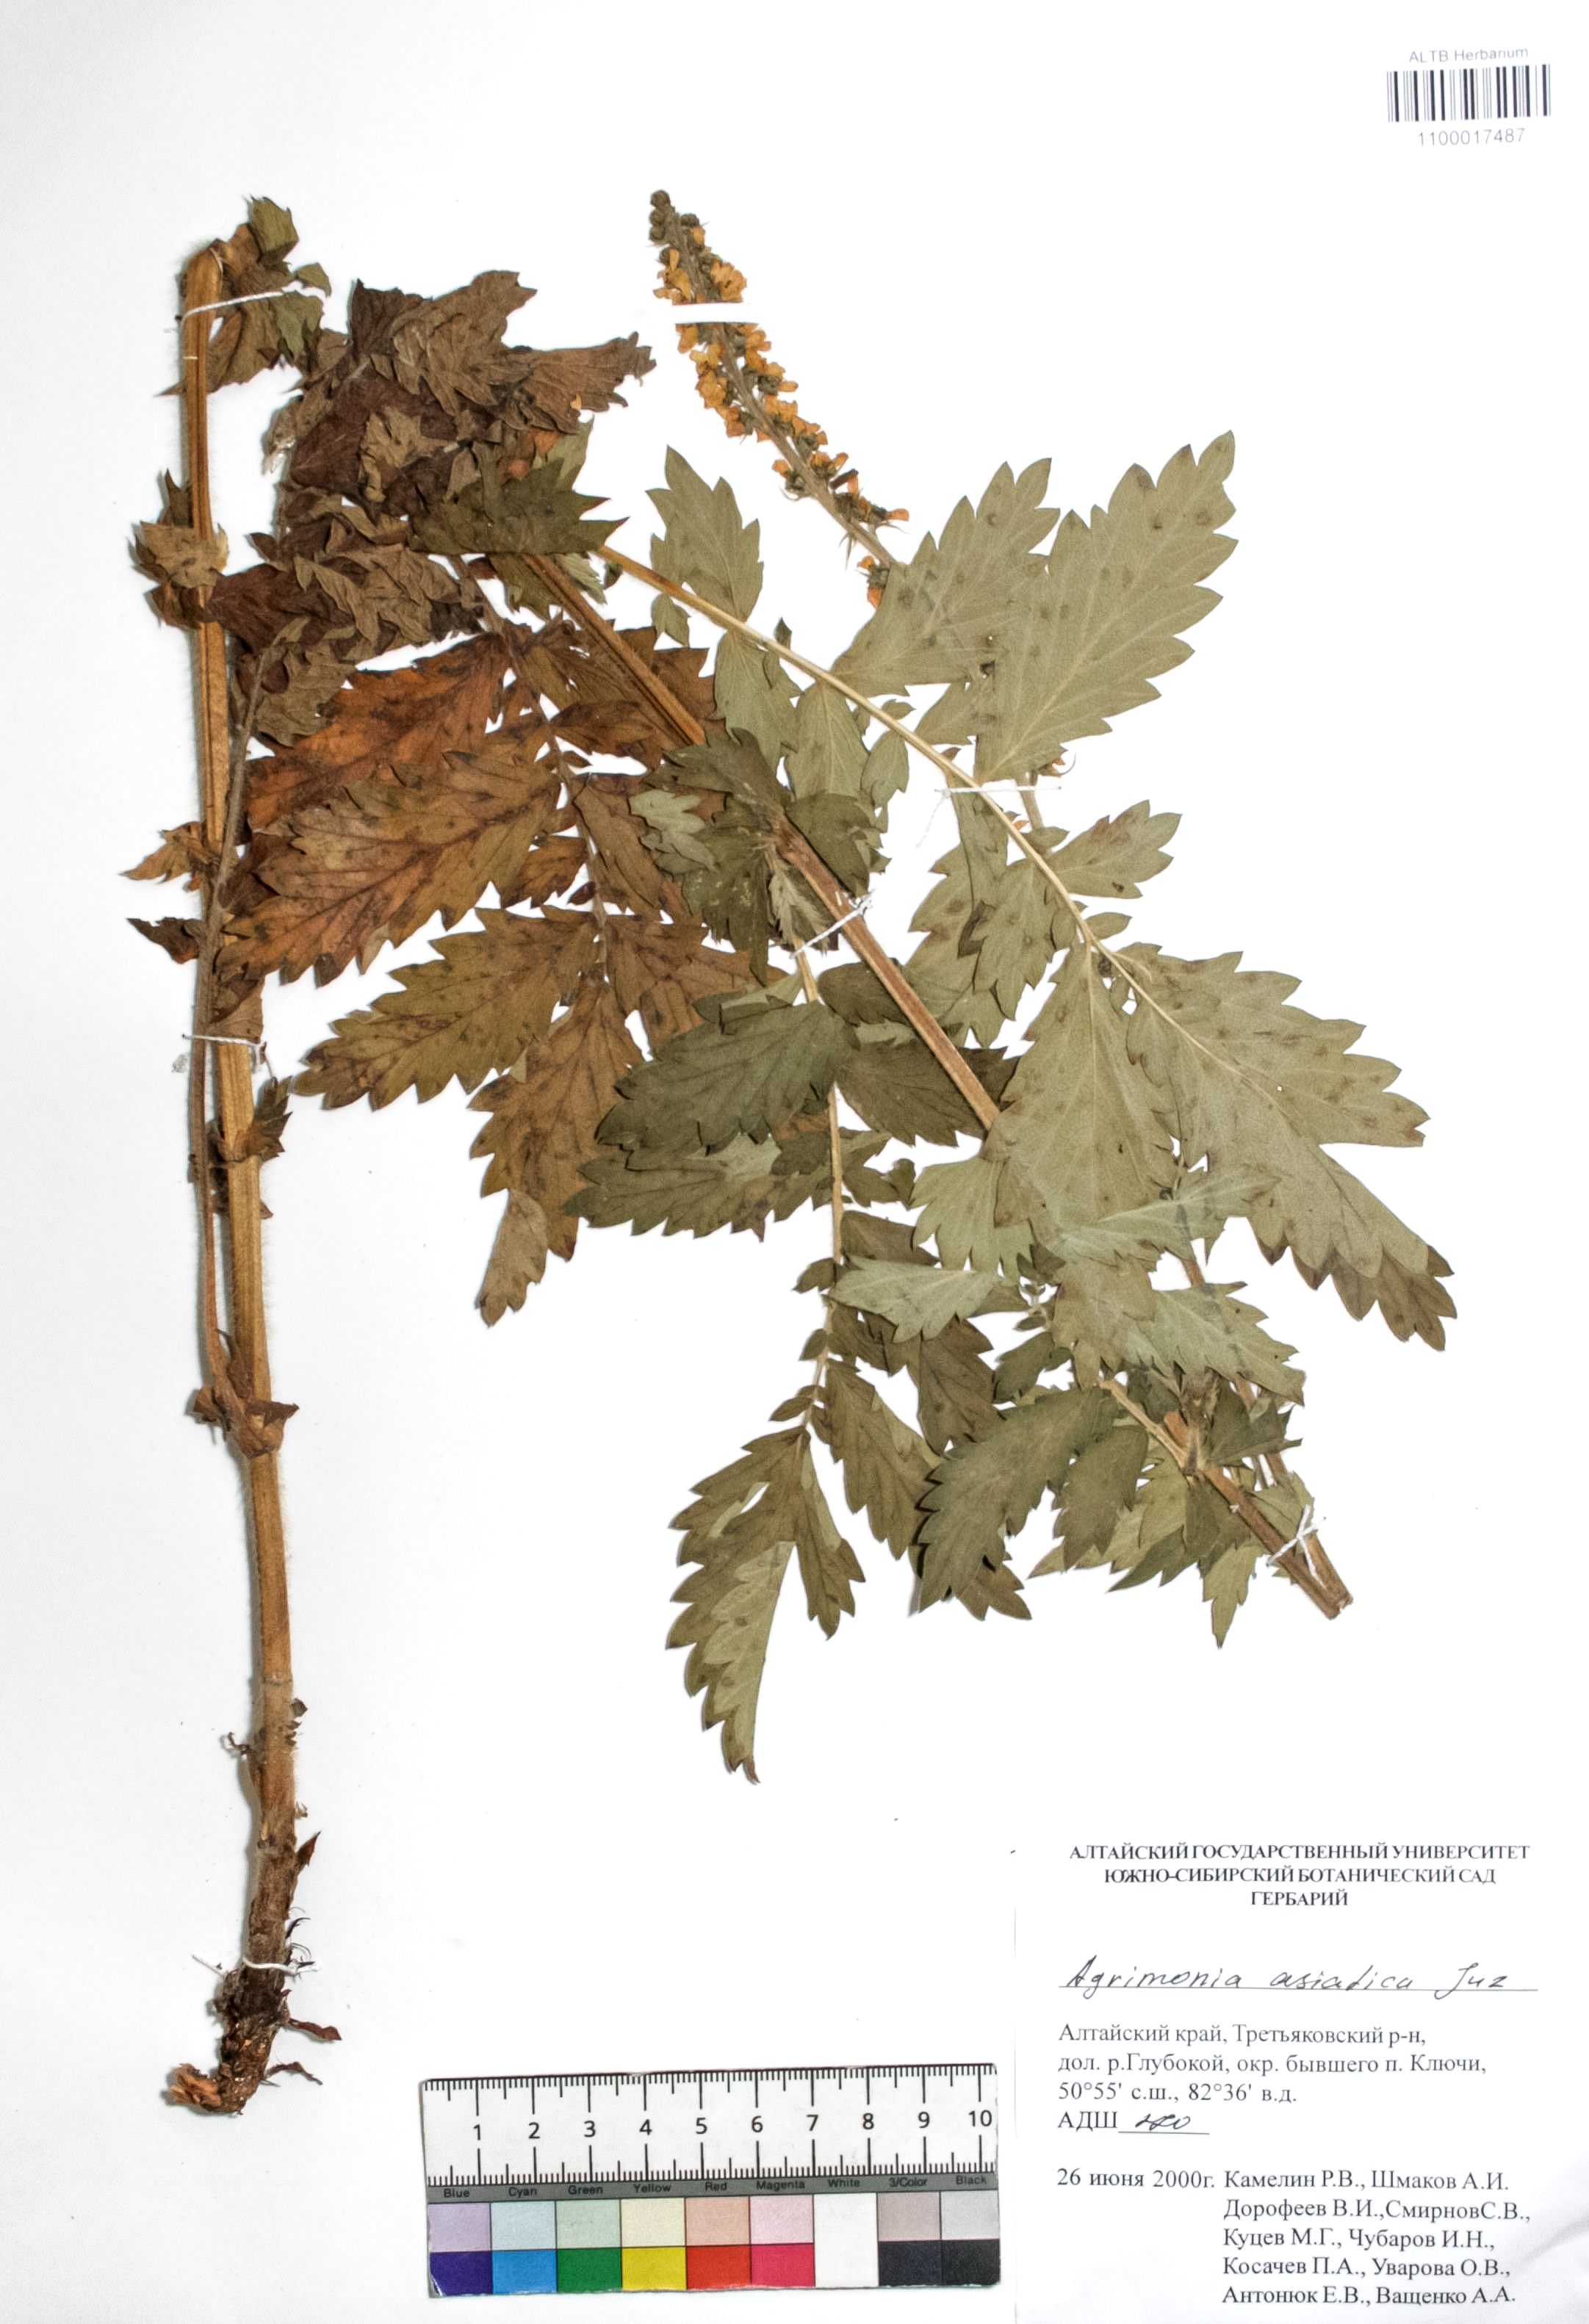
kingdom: Plantae
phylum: Tracheophyta
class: Magnoliopsida
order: Rosales
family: Rosaceae
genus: Agrimonia
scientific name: Agrimonia eupatoria
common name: Agrimony
